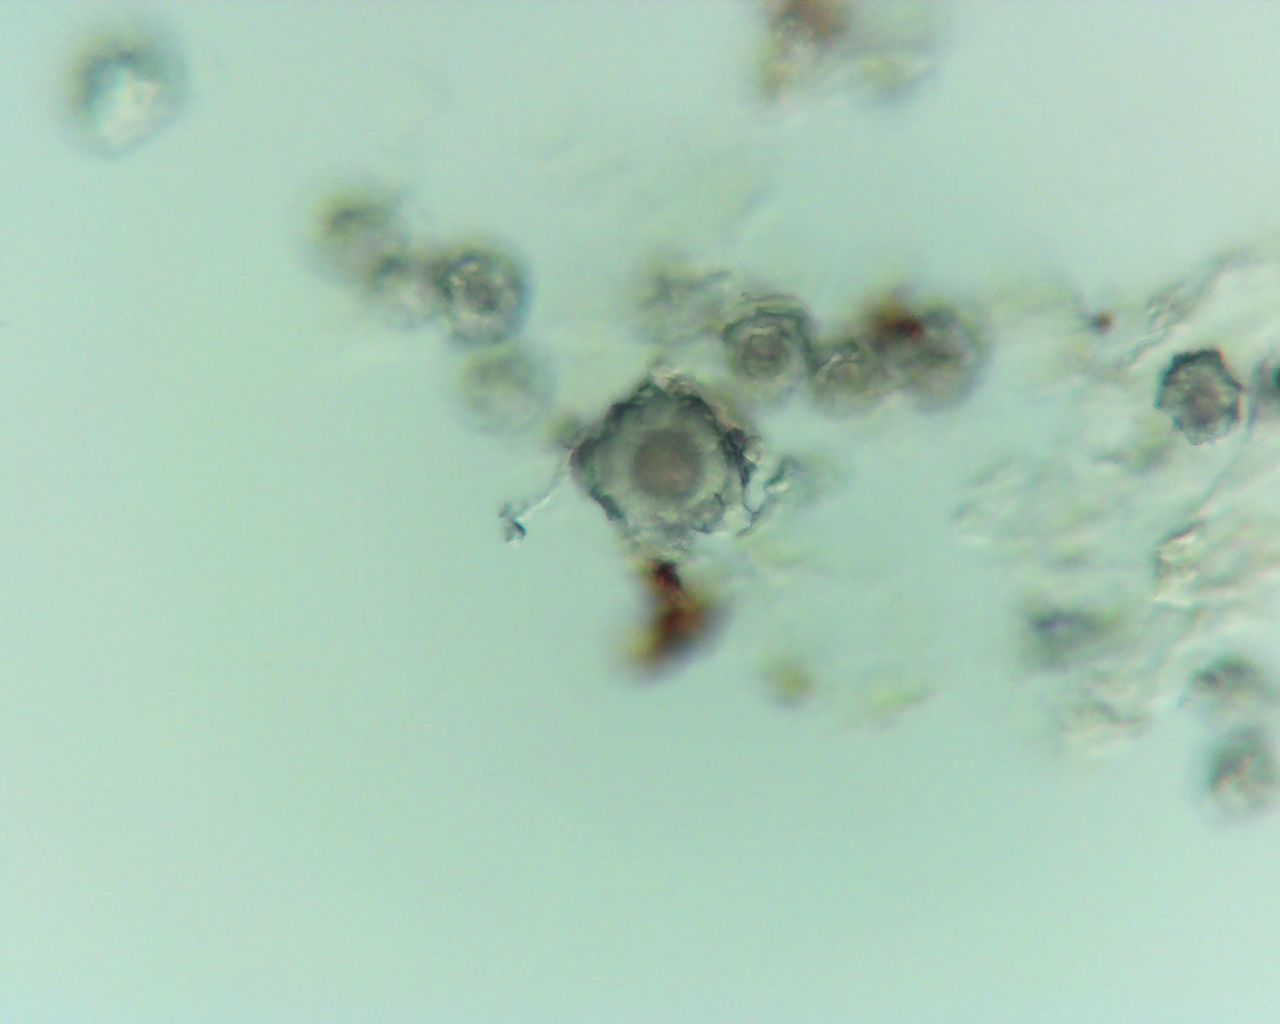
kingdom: Fungi
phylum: Ascomycota
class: Sordariomycetes
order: Amphisphaeriales
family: Clypeosphaeriaceae
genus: Clypeosphaeria
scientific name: Clypeosphaeria mamillana
